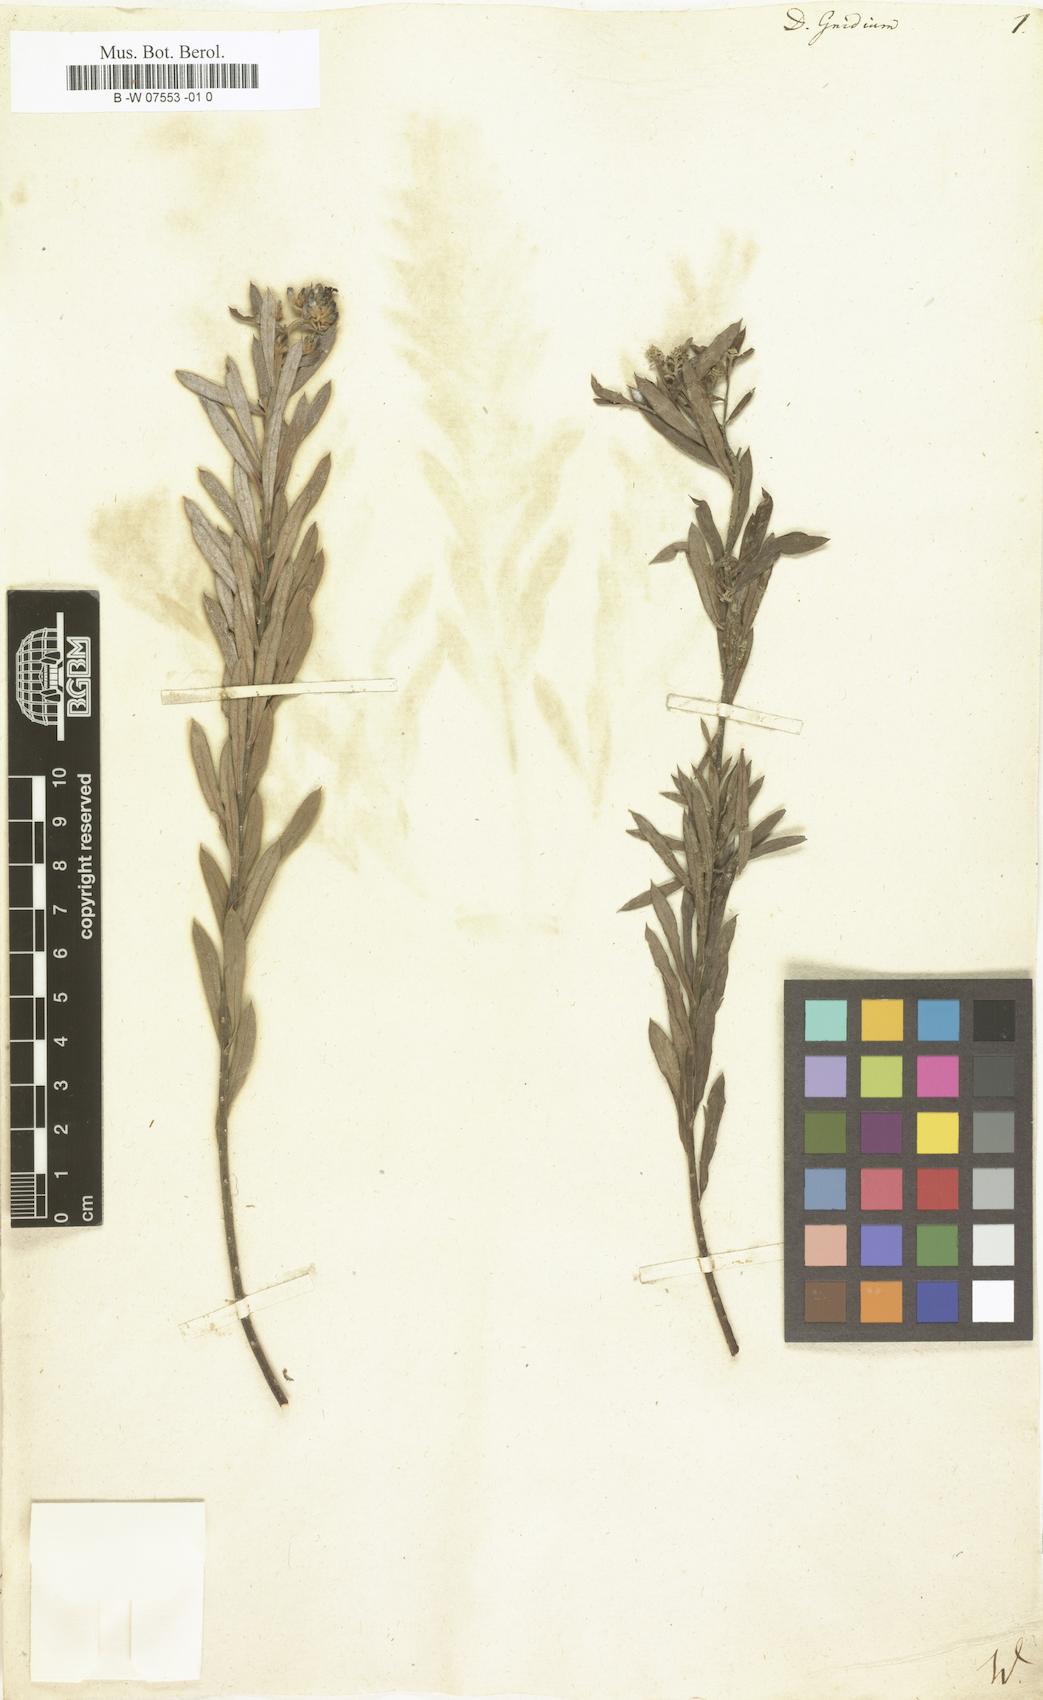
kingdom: Plantae
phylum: Tracheophyta
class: Magnoliopsida
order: Malvales
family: Thymelaeaceae
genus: Daphne
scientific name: Daphne gnidium
